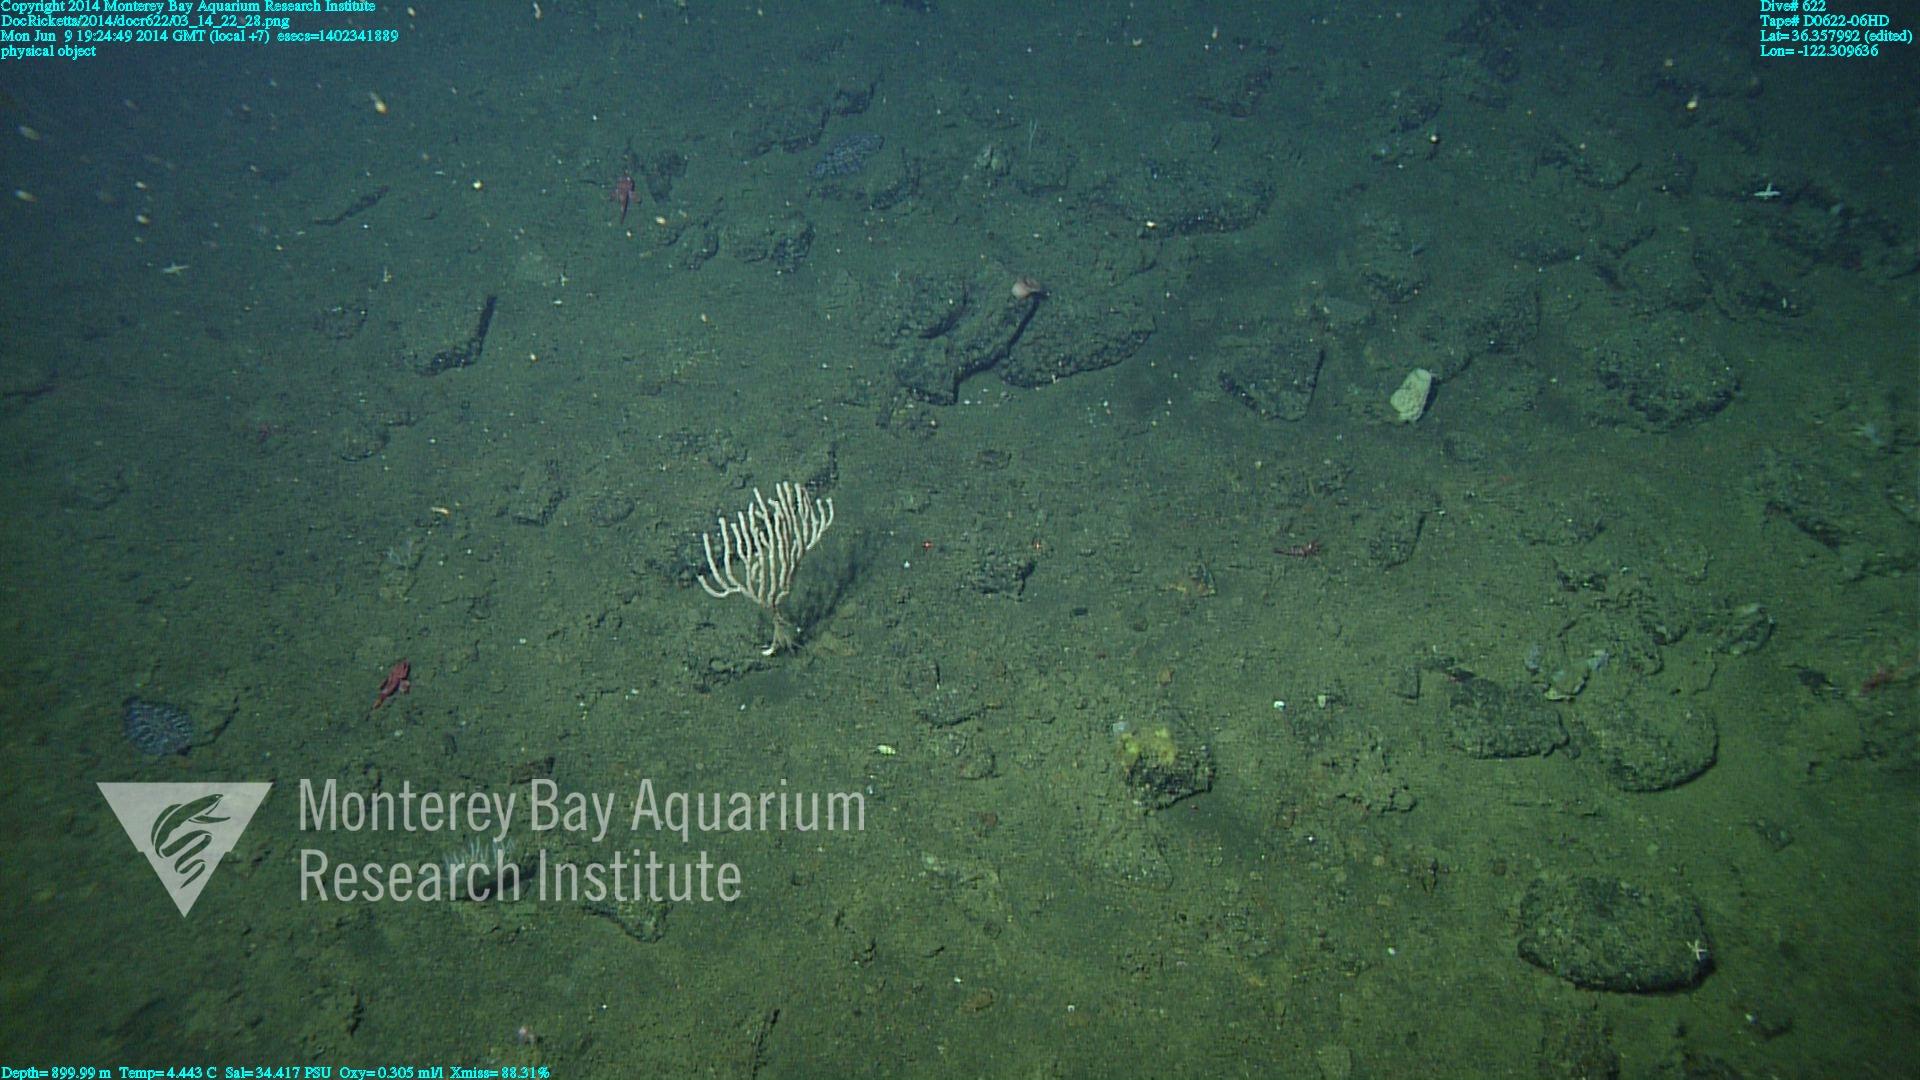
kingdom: Animalia
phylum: Cnidaria
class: Anthozoa
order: Scleralcyonacea
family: Keratoisididae
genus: Isidella
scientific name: Isidella tentaculum
